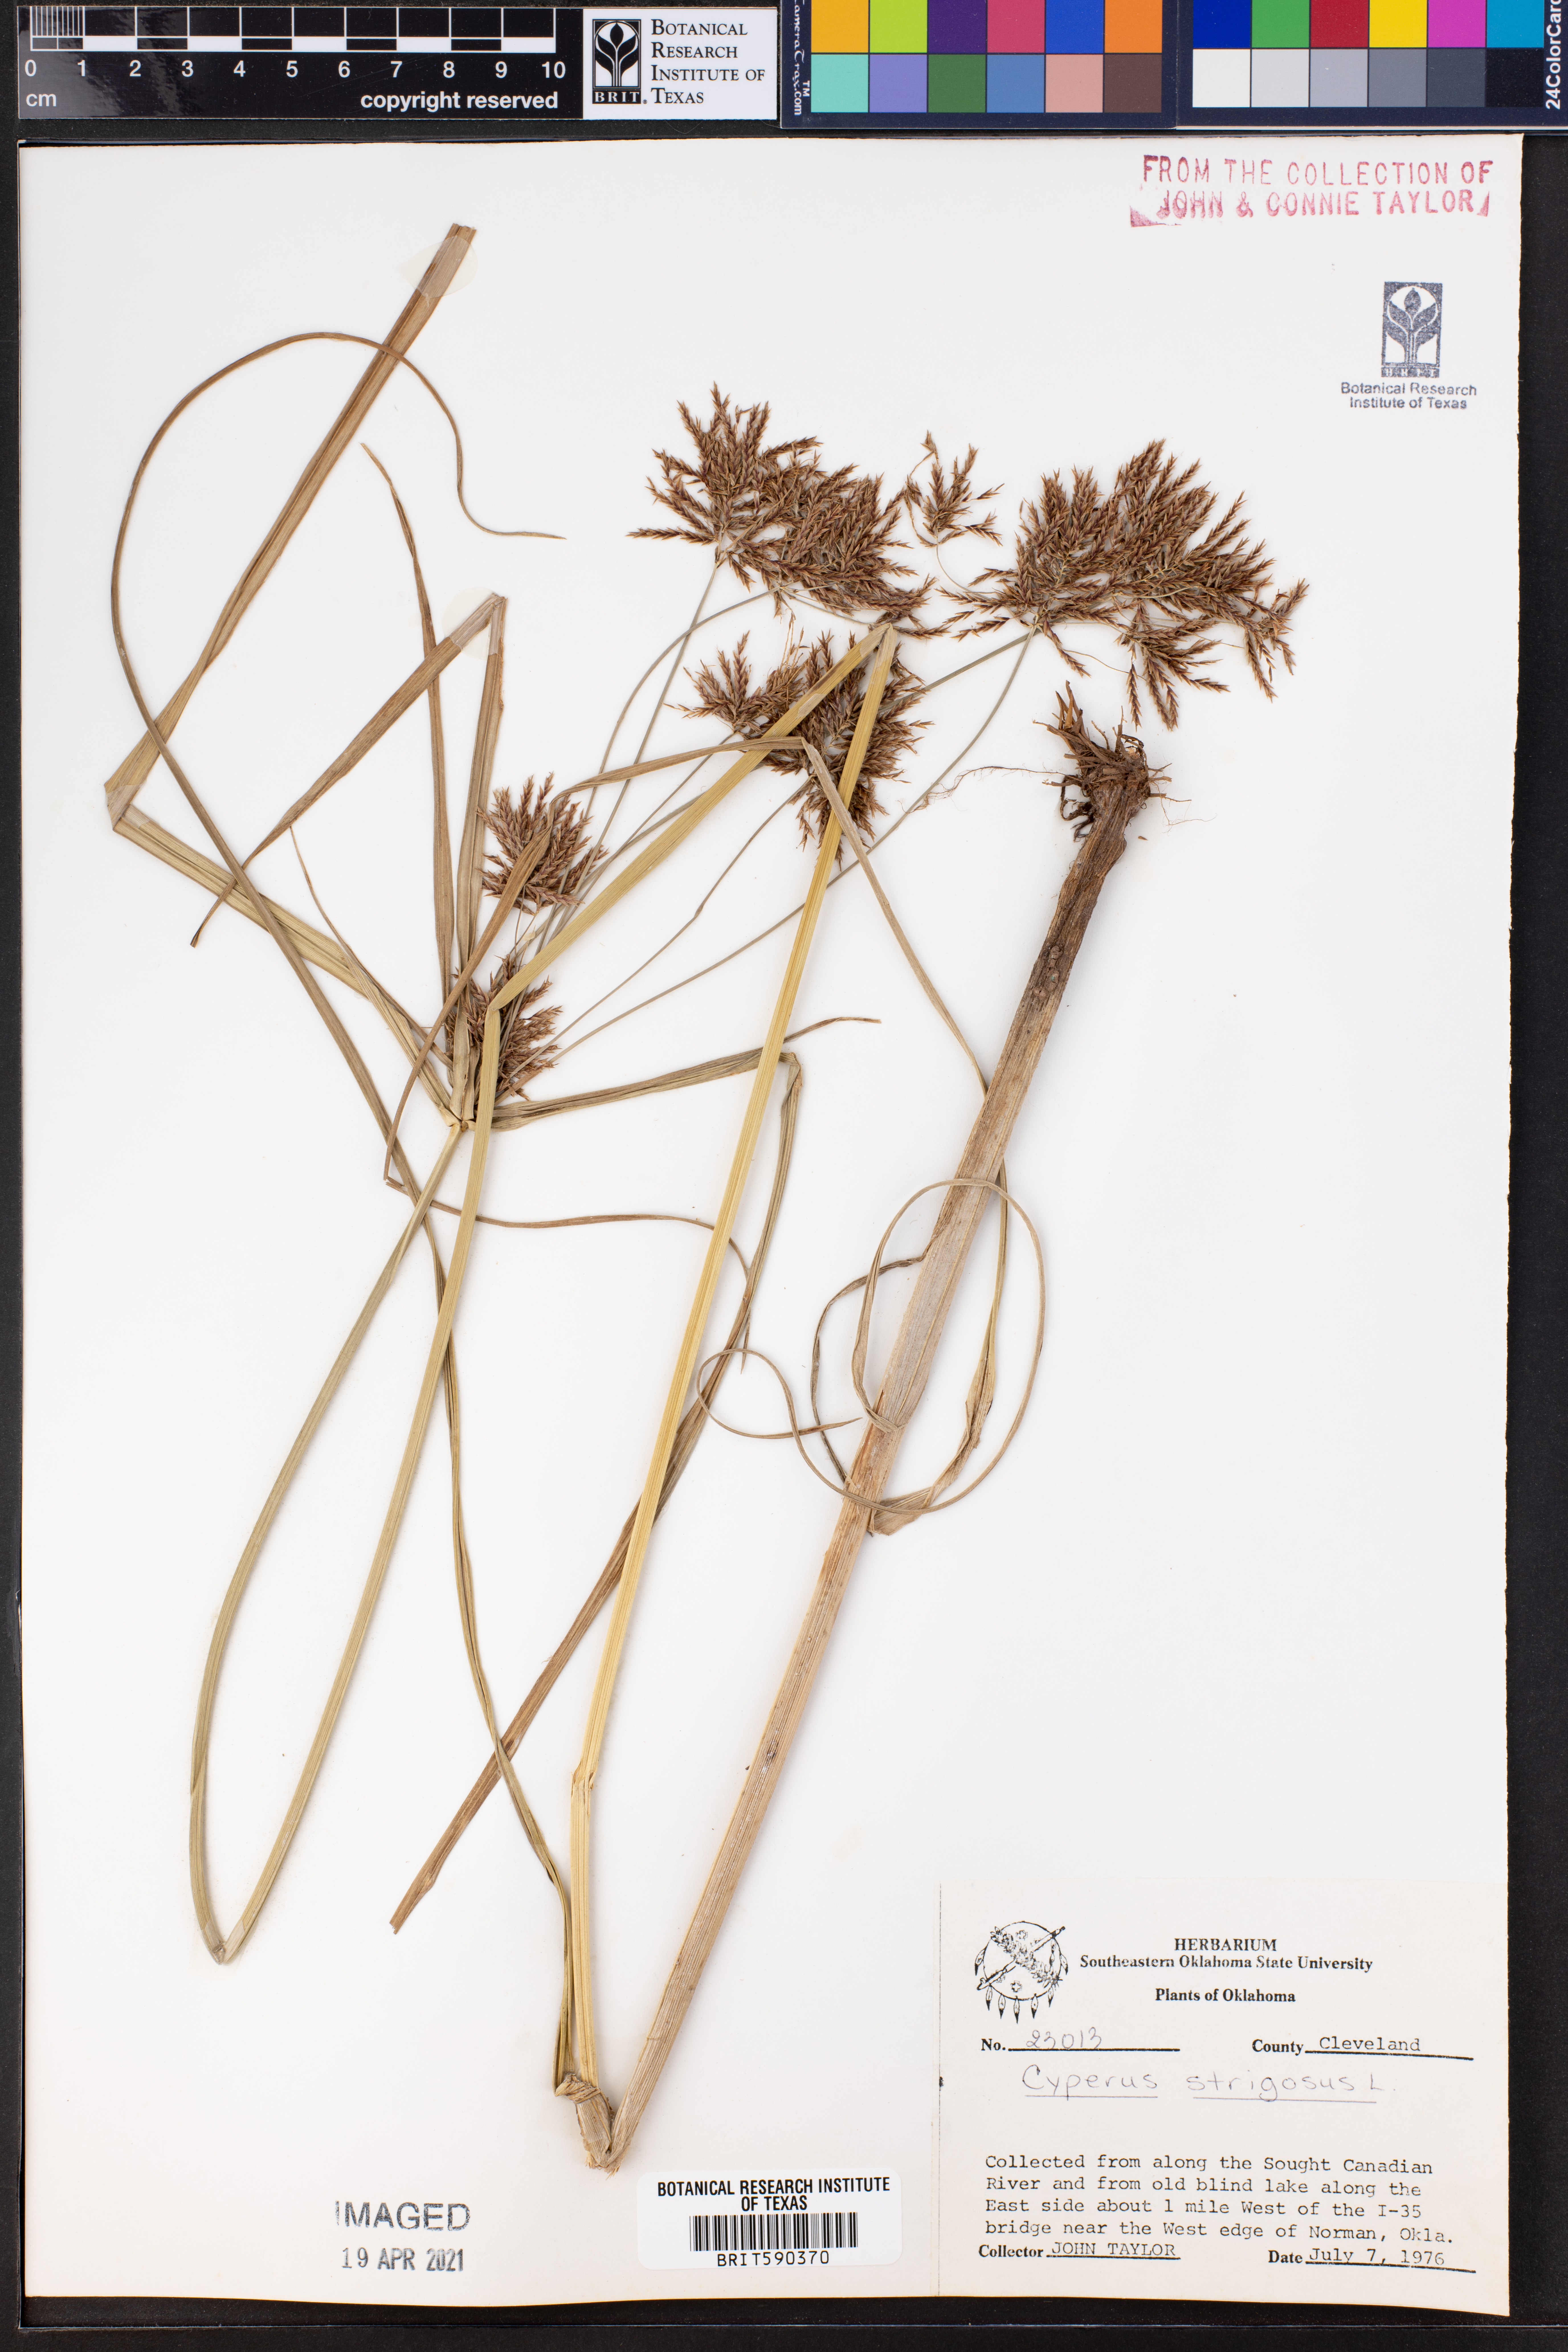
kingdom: Plantae
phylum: Tracheophyta
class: Liliopsida
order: Poales
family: Cyperaceae
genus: Cyperus
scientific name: Cyperus strigosus
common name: False nutsedge
